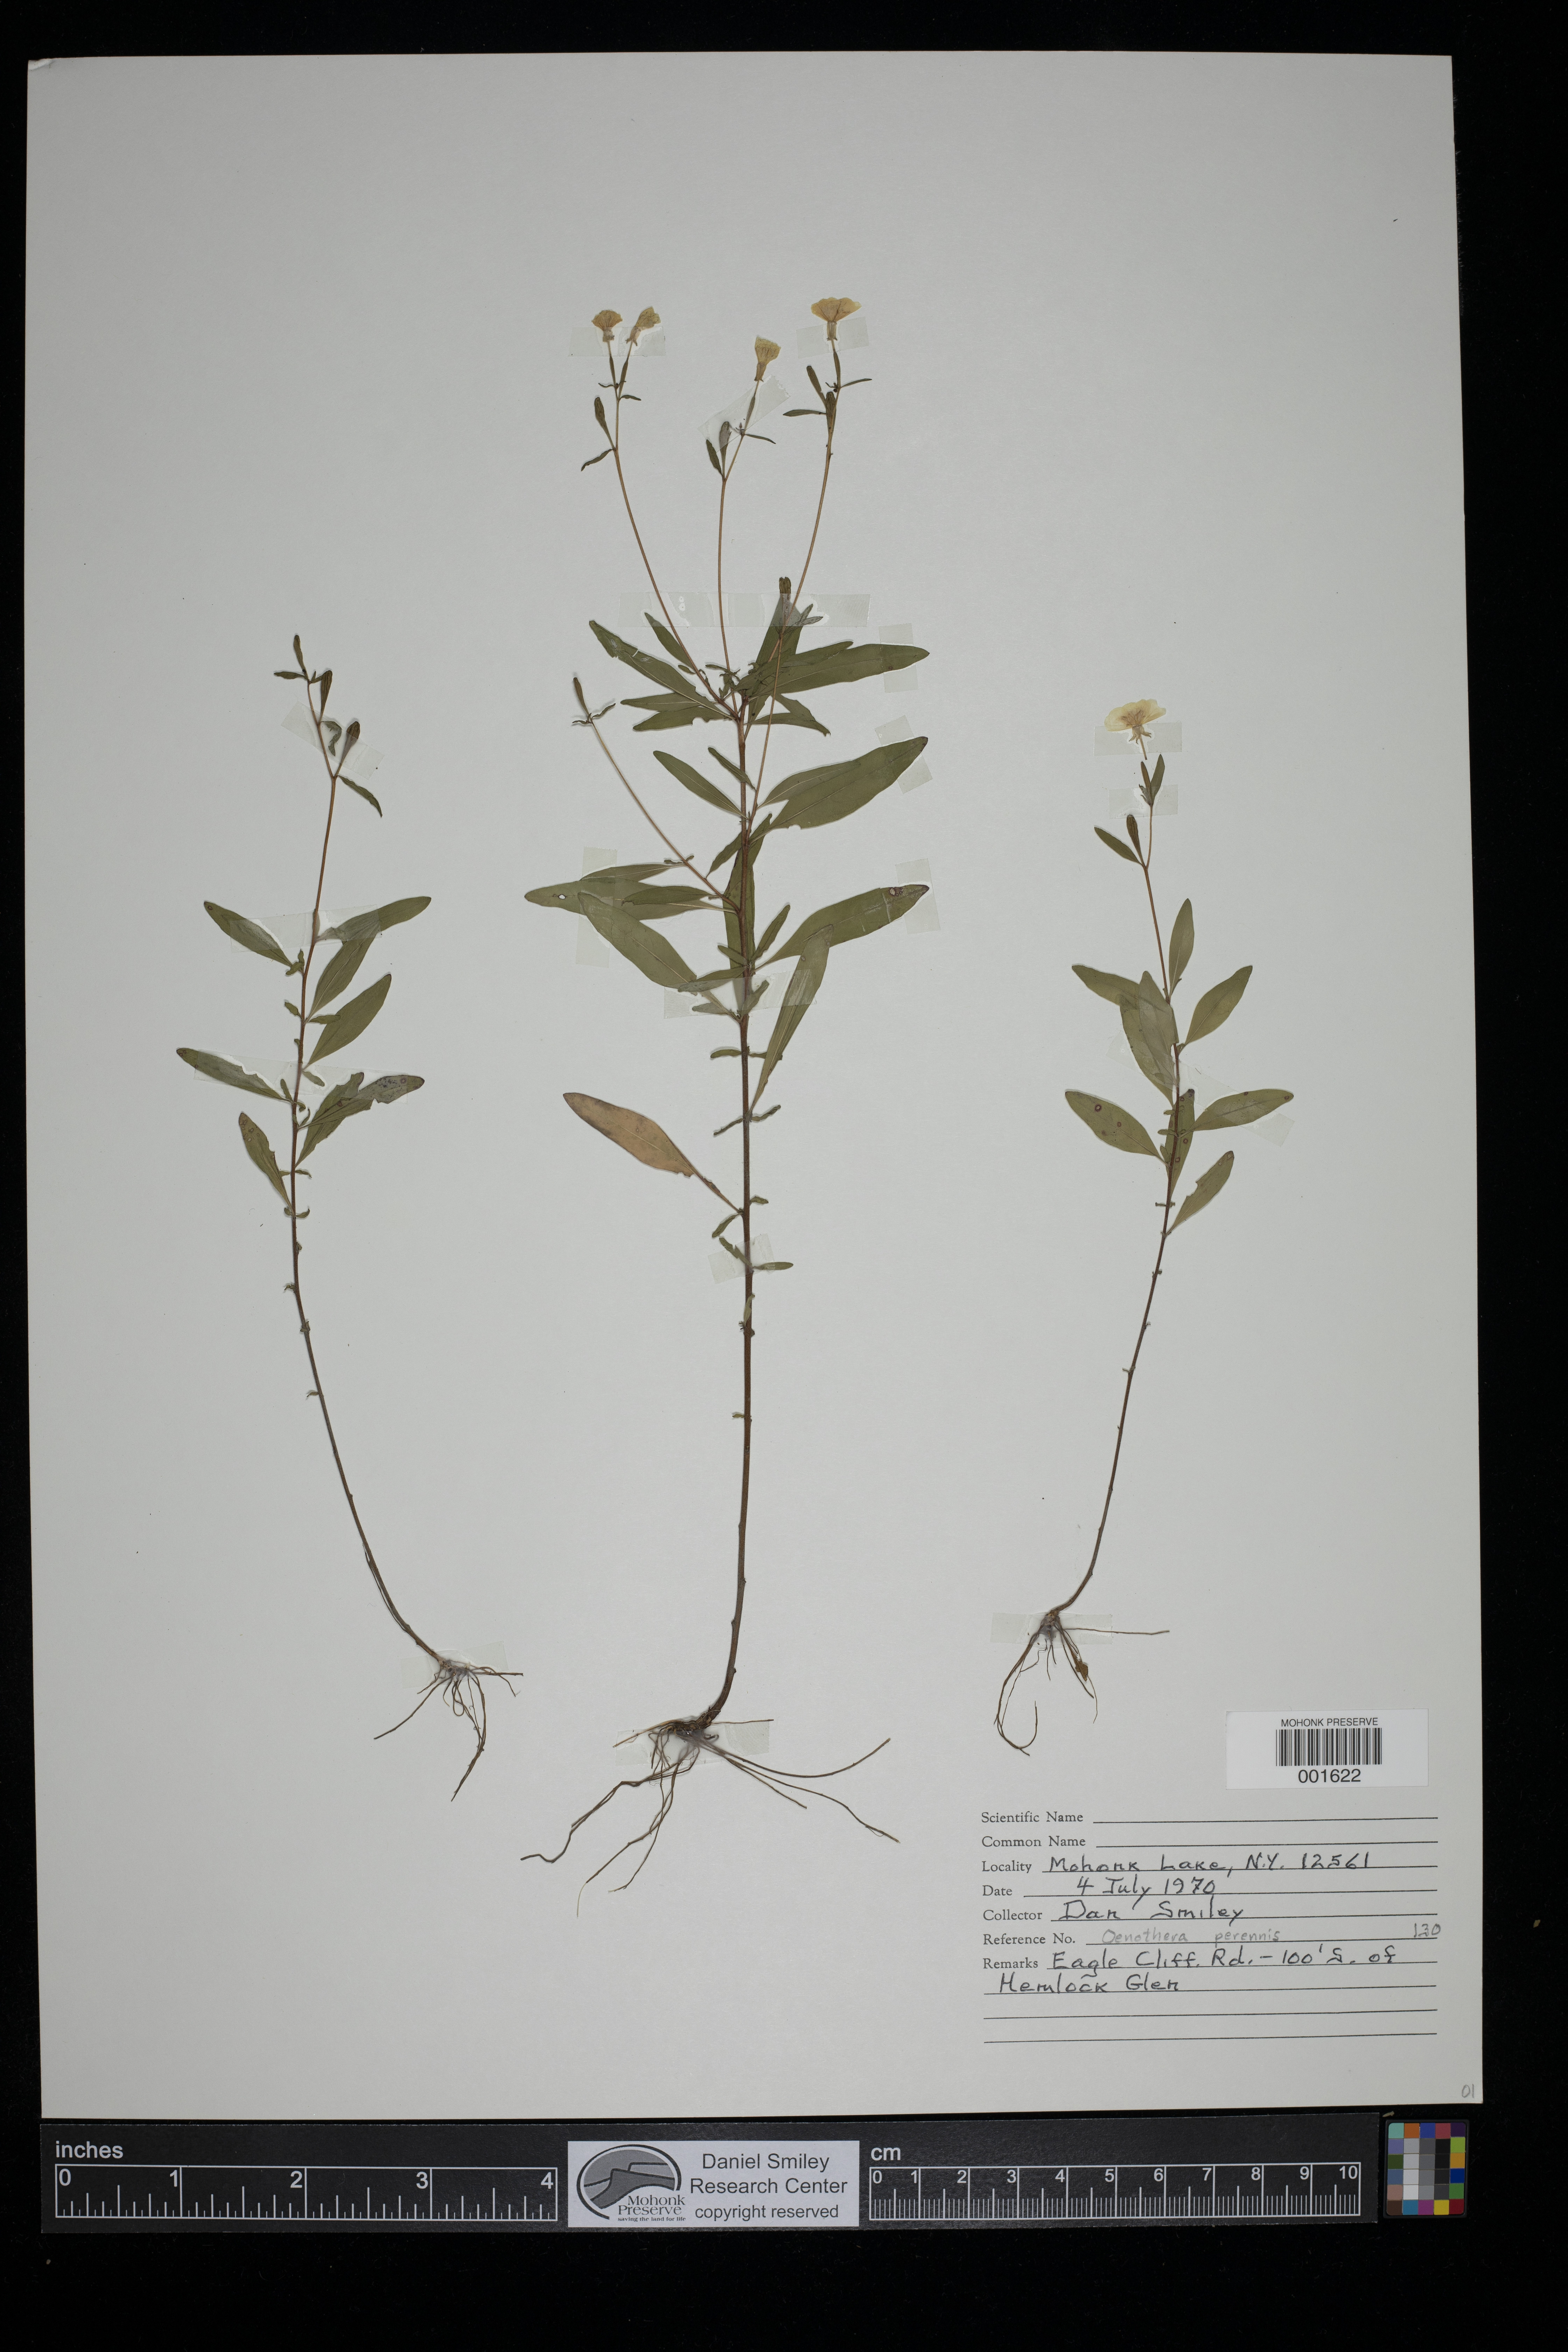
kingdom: Plantae
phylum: Tracheophyta
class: Magnoliopsida
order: Myrtales
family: Onagraceae
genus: Oenothera
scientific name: Oenothera perennis
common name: Small sundrops
